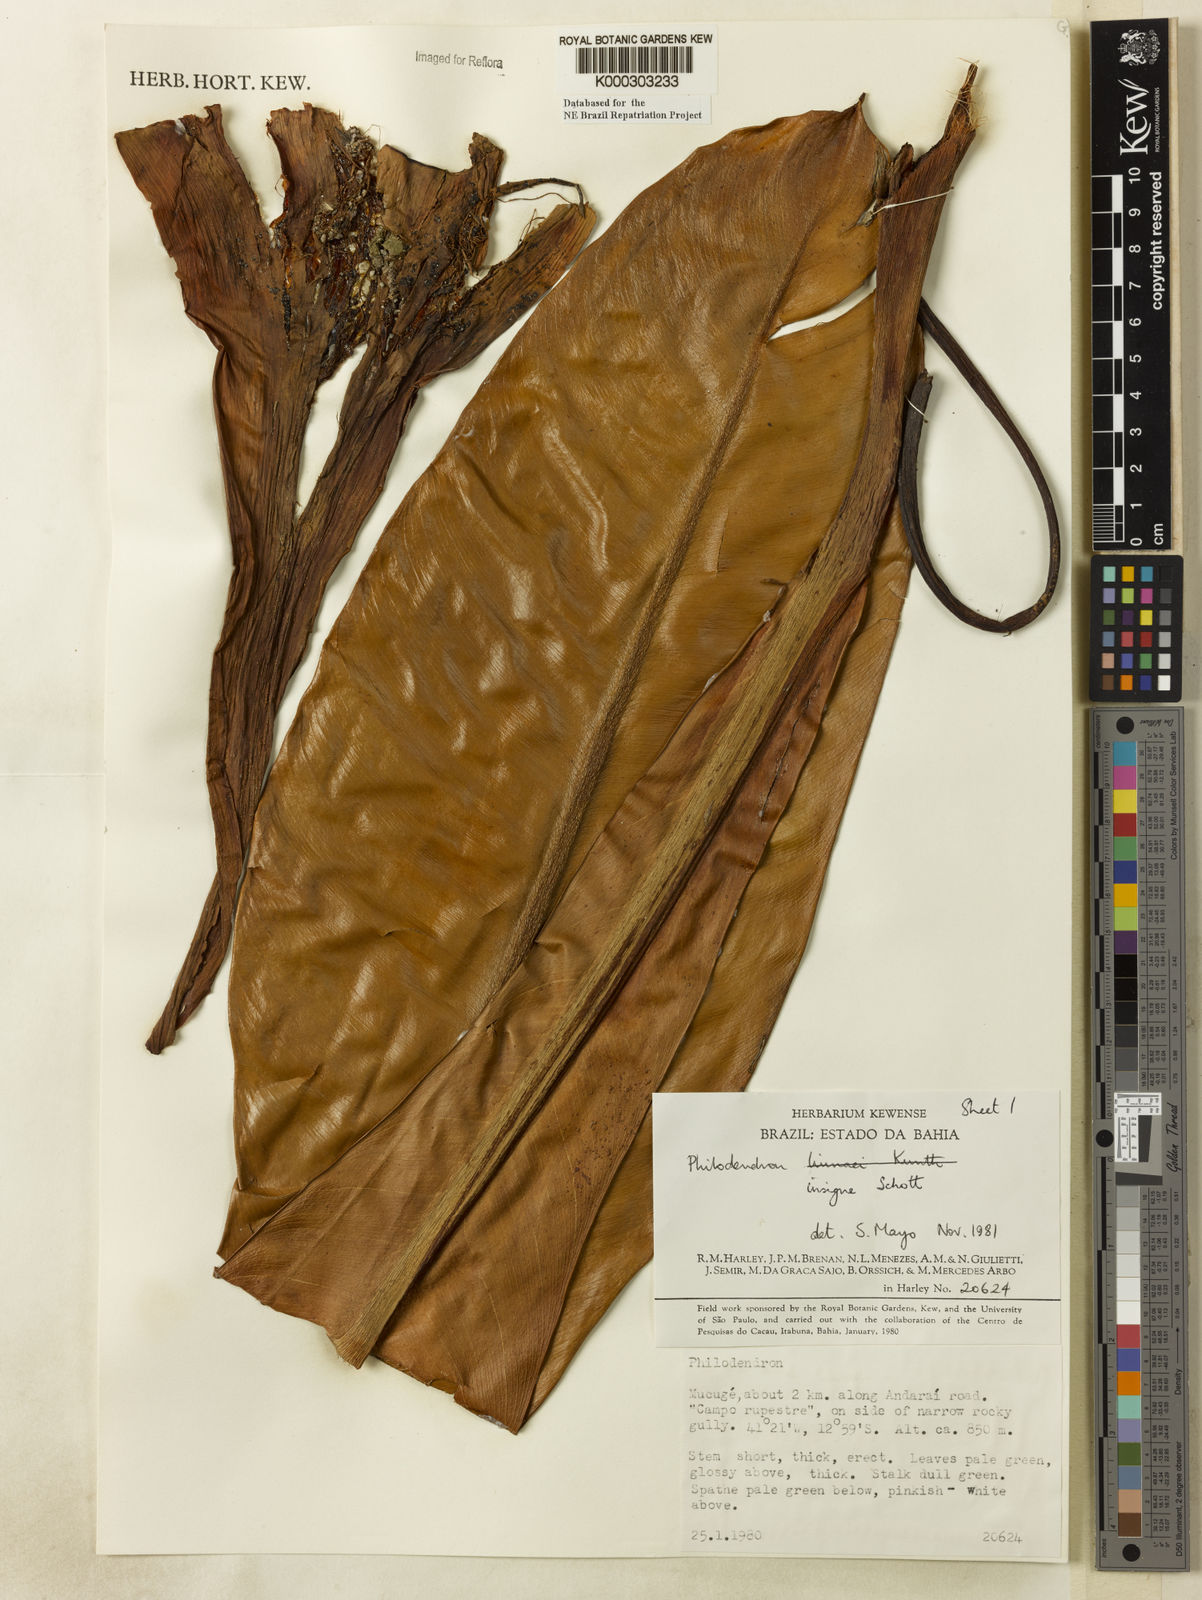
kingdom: Plantae
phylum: Tracheophyta
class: Liliopsida
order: Alismatales
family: Araceae
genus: Philodendron
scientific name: Philodendron insigne
